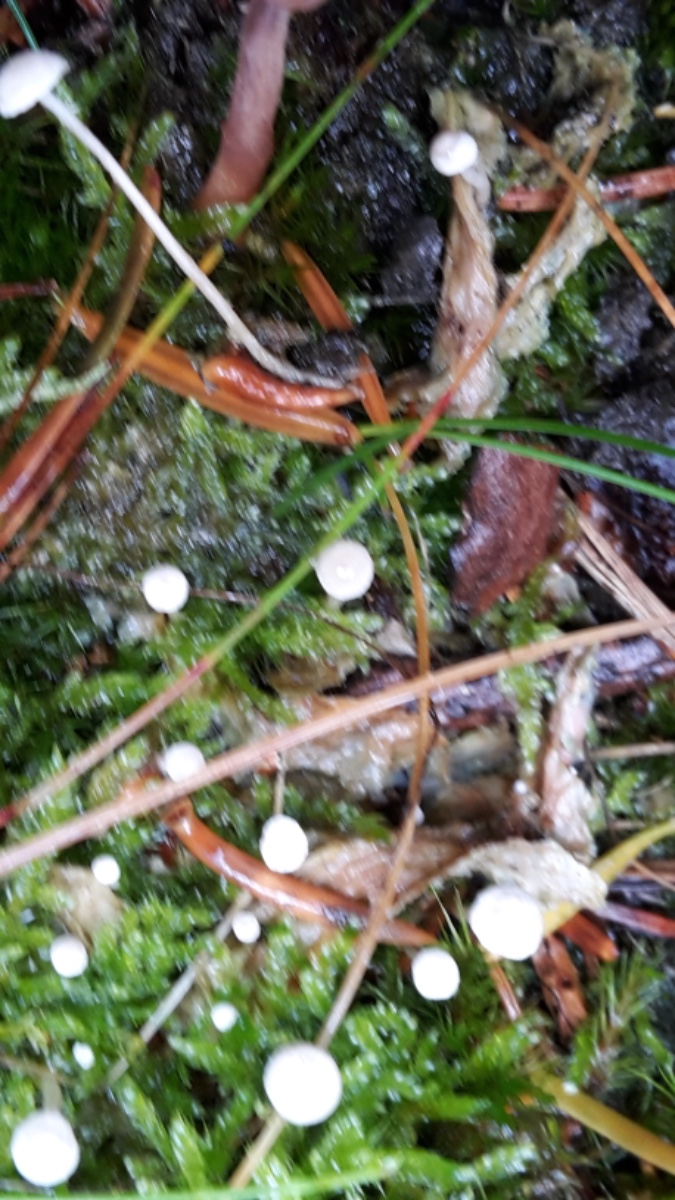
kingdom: Fungi
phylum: Basidiomycota
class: Agaricomycetes
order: Agaricales
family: Tricholomataceae
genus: Collybia
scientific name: Collybia tuberosa
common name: spidsknoldet lighat
